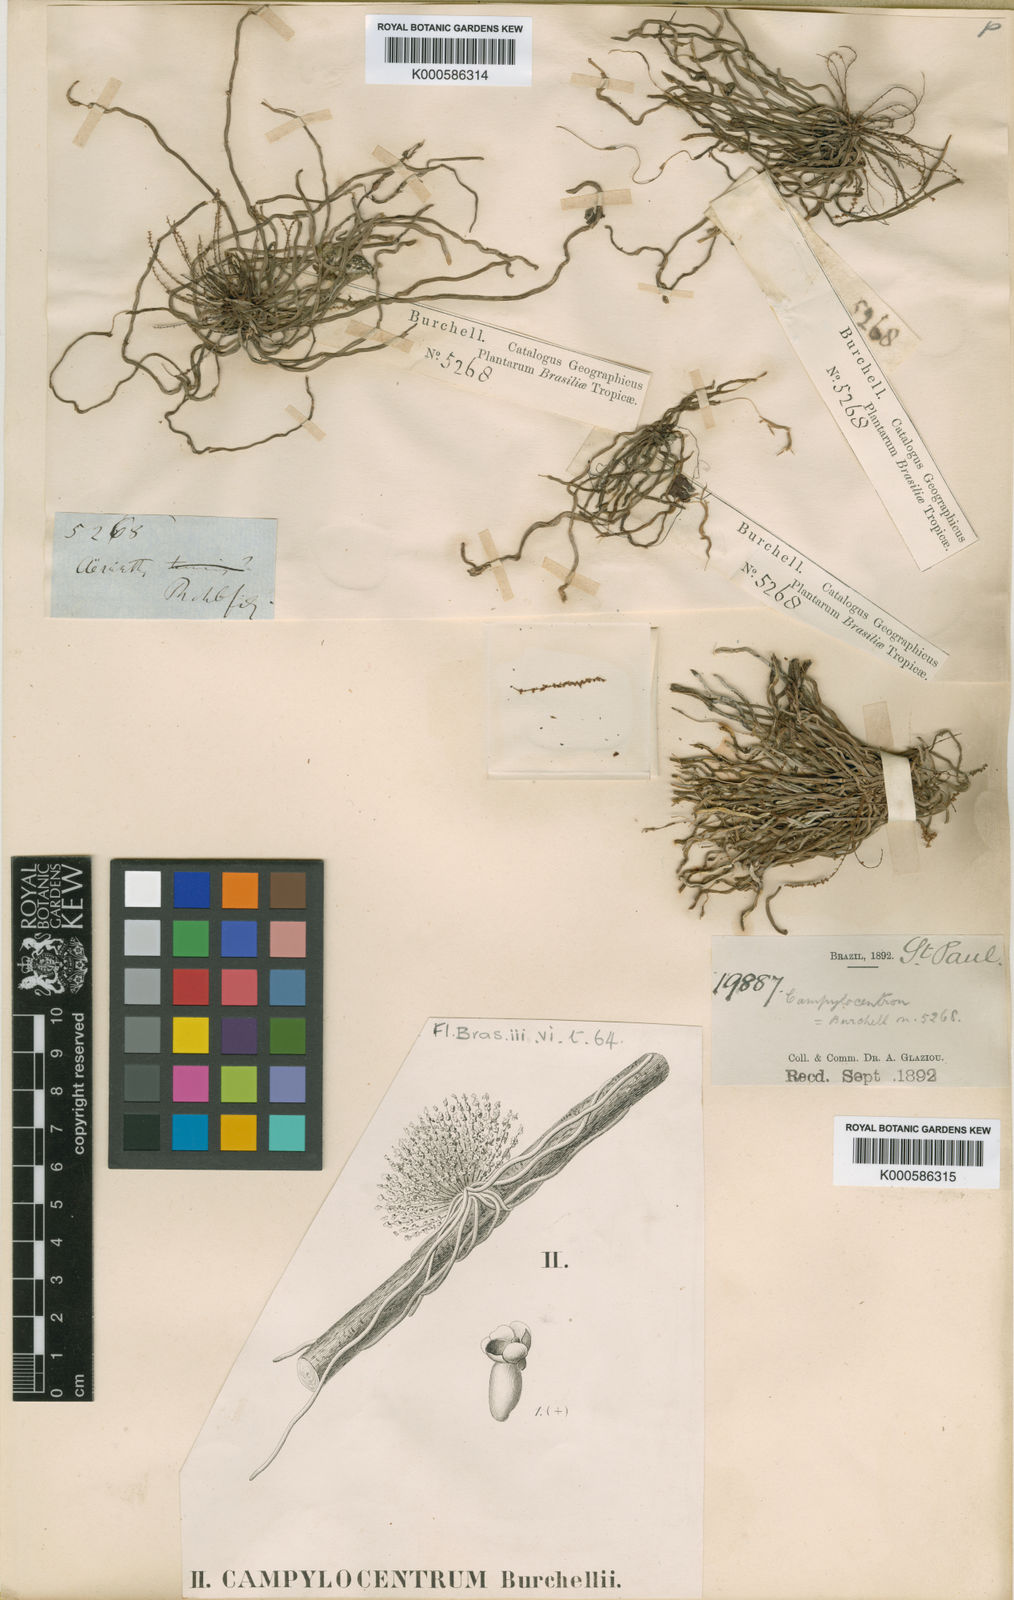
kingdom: Plantae
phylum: Tracheophyta
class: Liliopsida
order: Asparagales
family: Orchidaceae
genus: Campylocentrum
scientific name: Campylocentrum grisebachii
